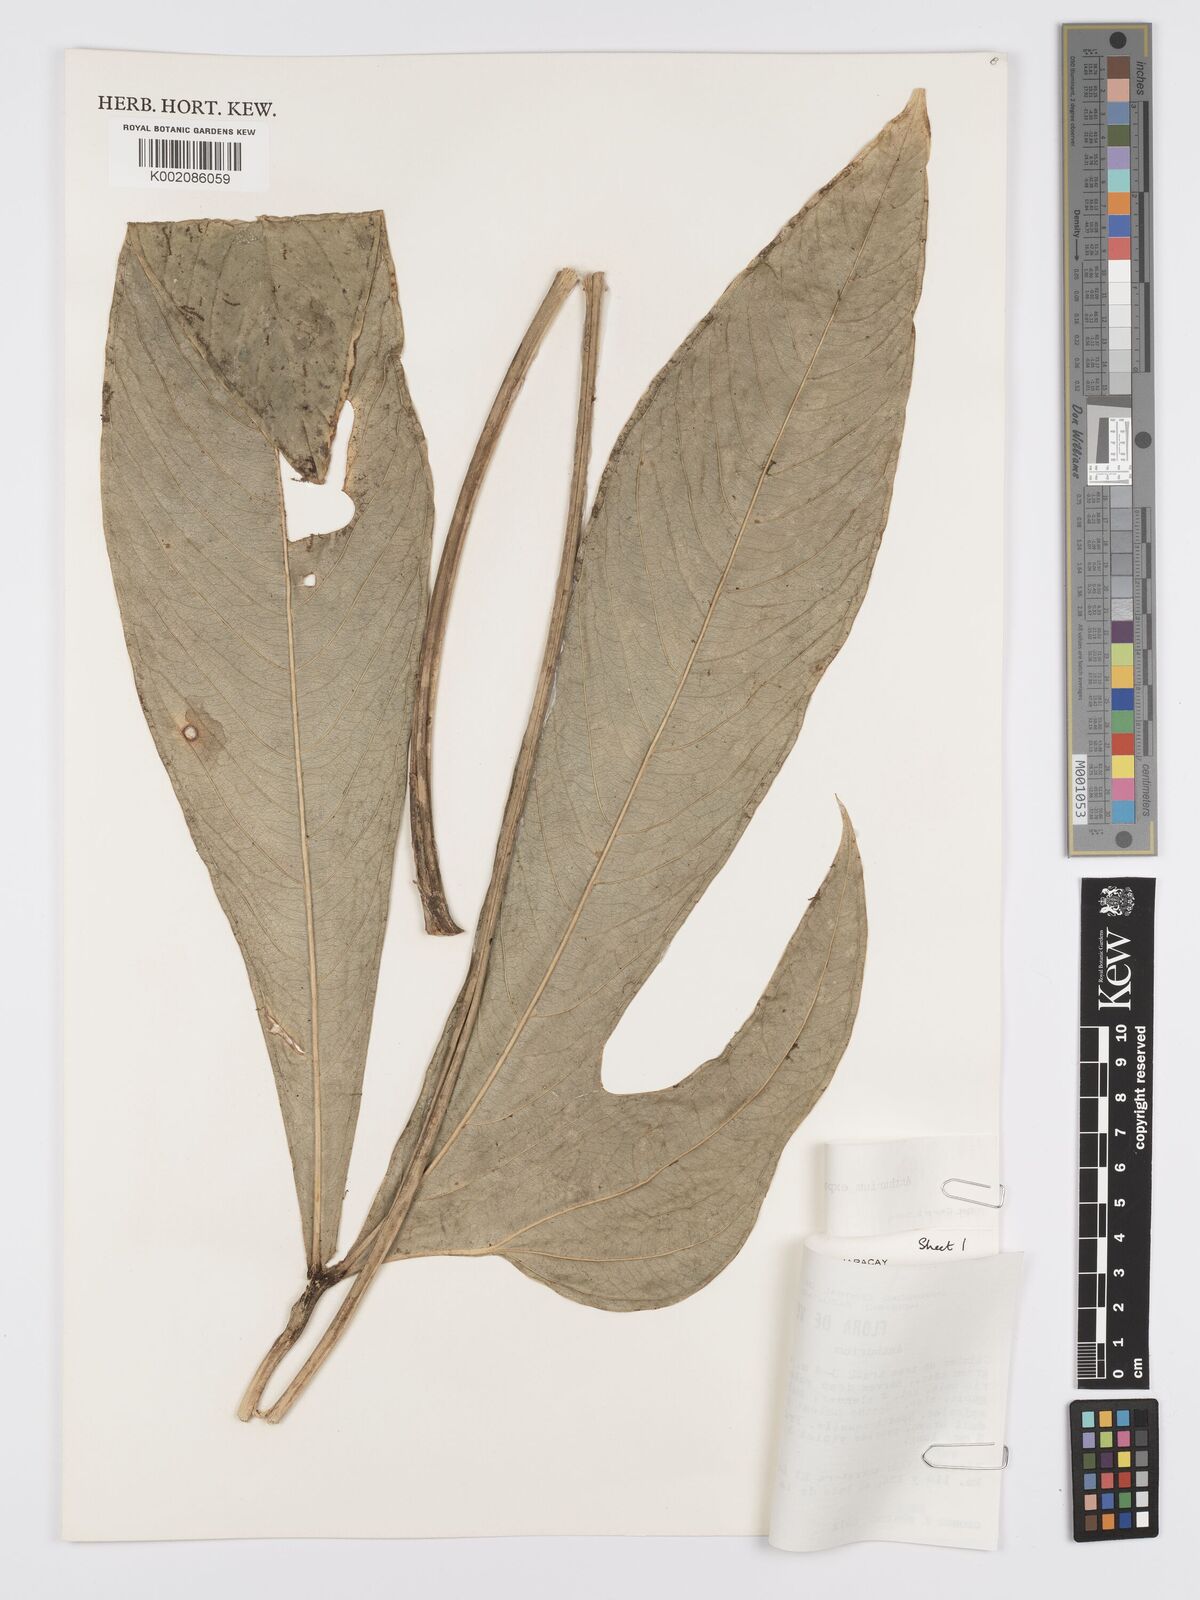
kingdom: Plantae
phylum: Tracheophyta
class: Liliopsida
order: Alismatales
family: Araceae
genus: Anthurium
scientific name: Anthurium expansum
